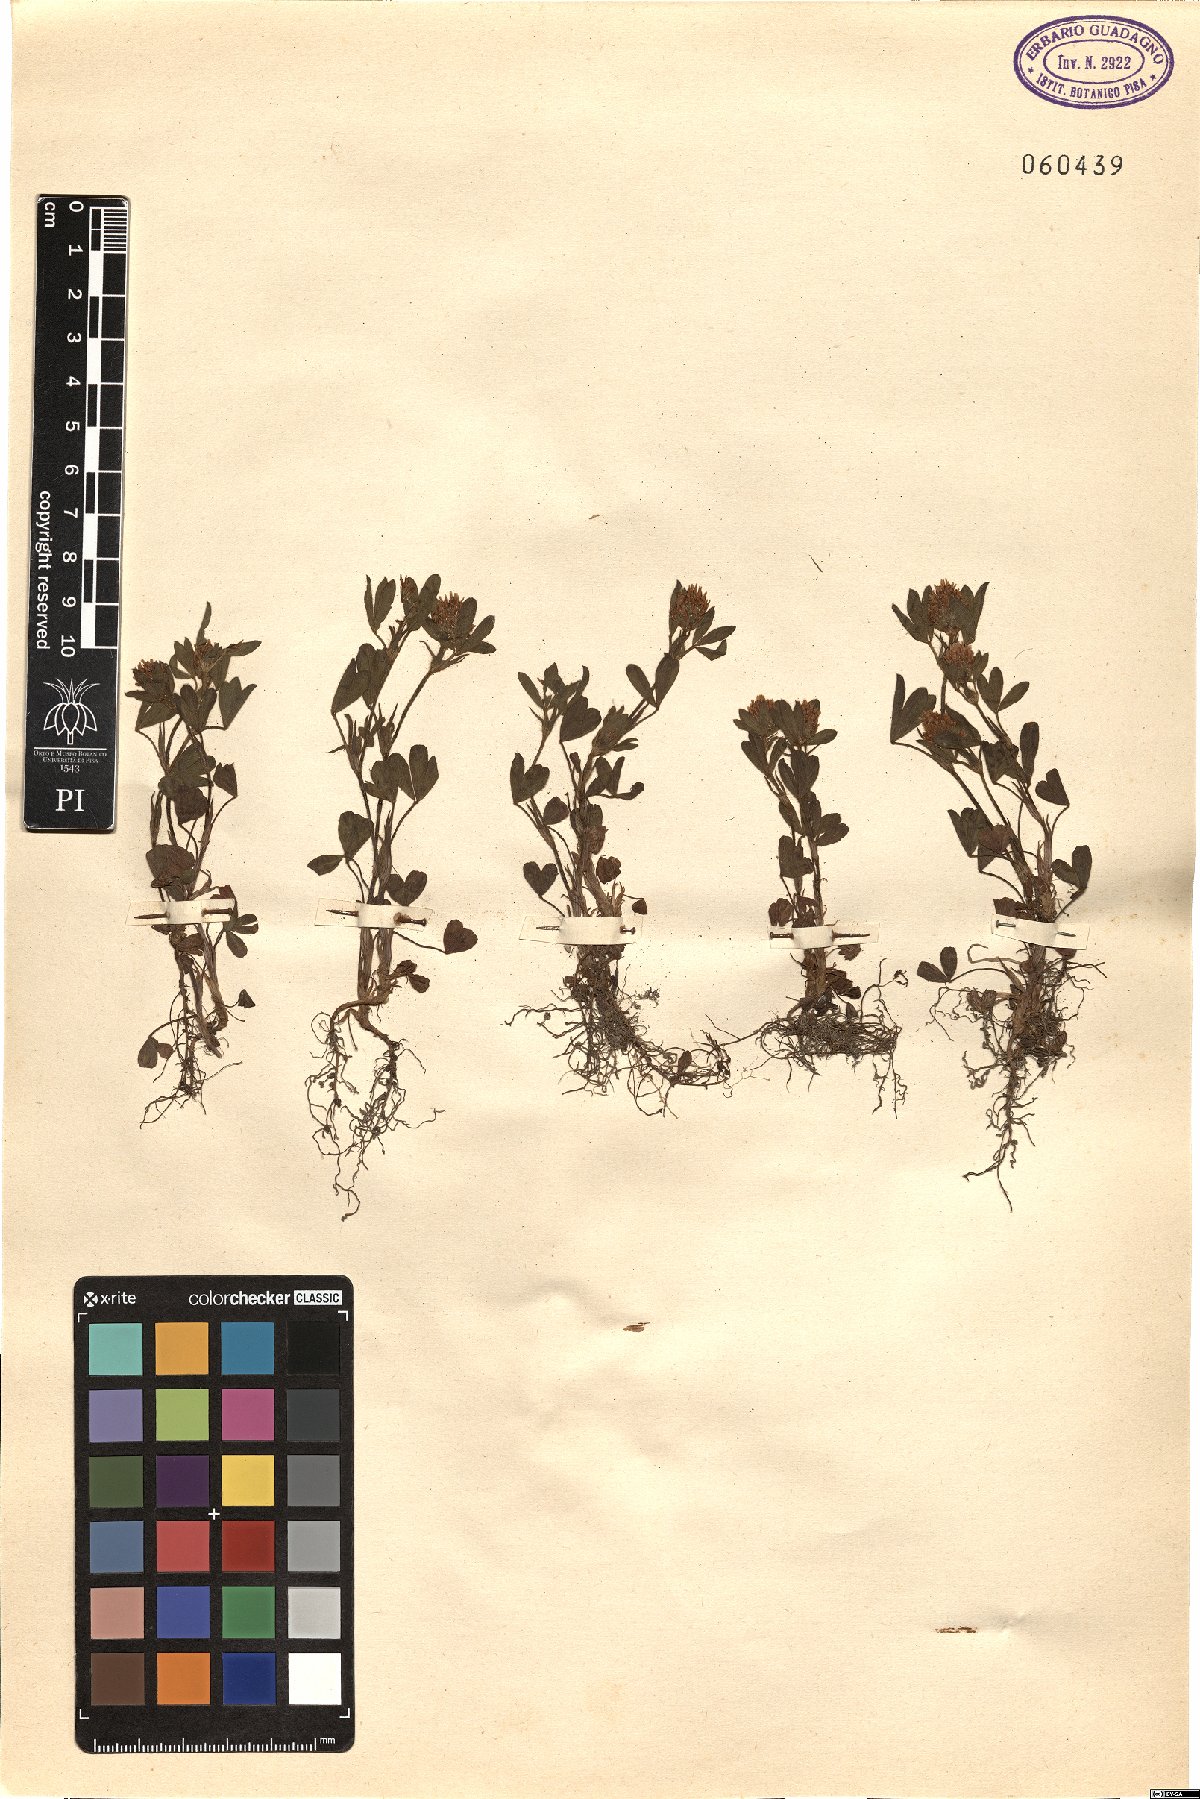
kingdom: Plantae
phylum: Tracheophyta
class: Magnoliopsida
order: Fabales
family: Fabaceae
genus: Trifolium
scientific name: Trifolium tenuifolium
